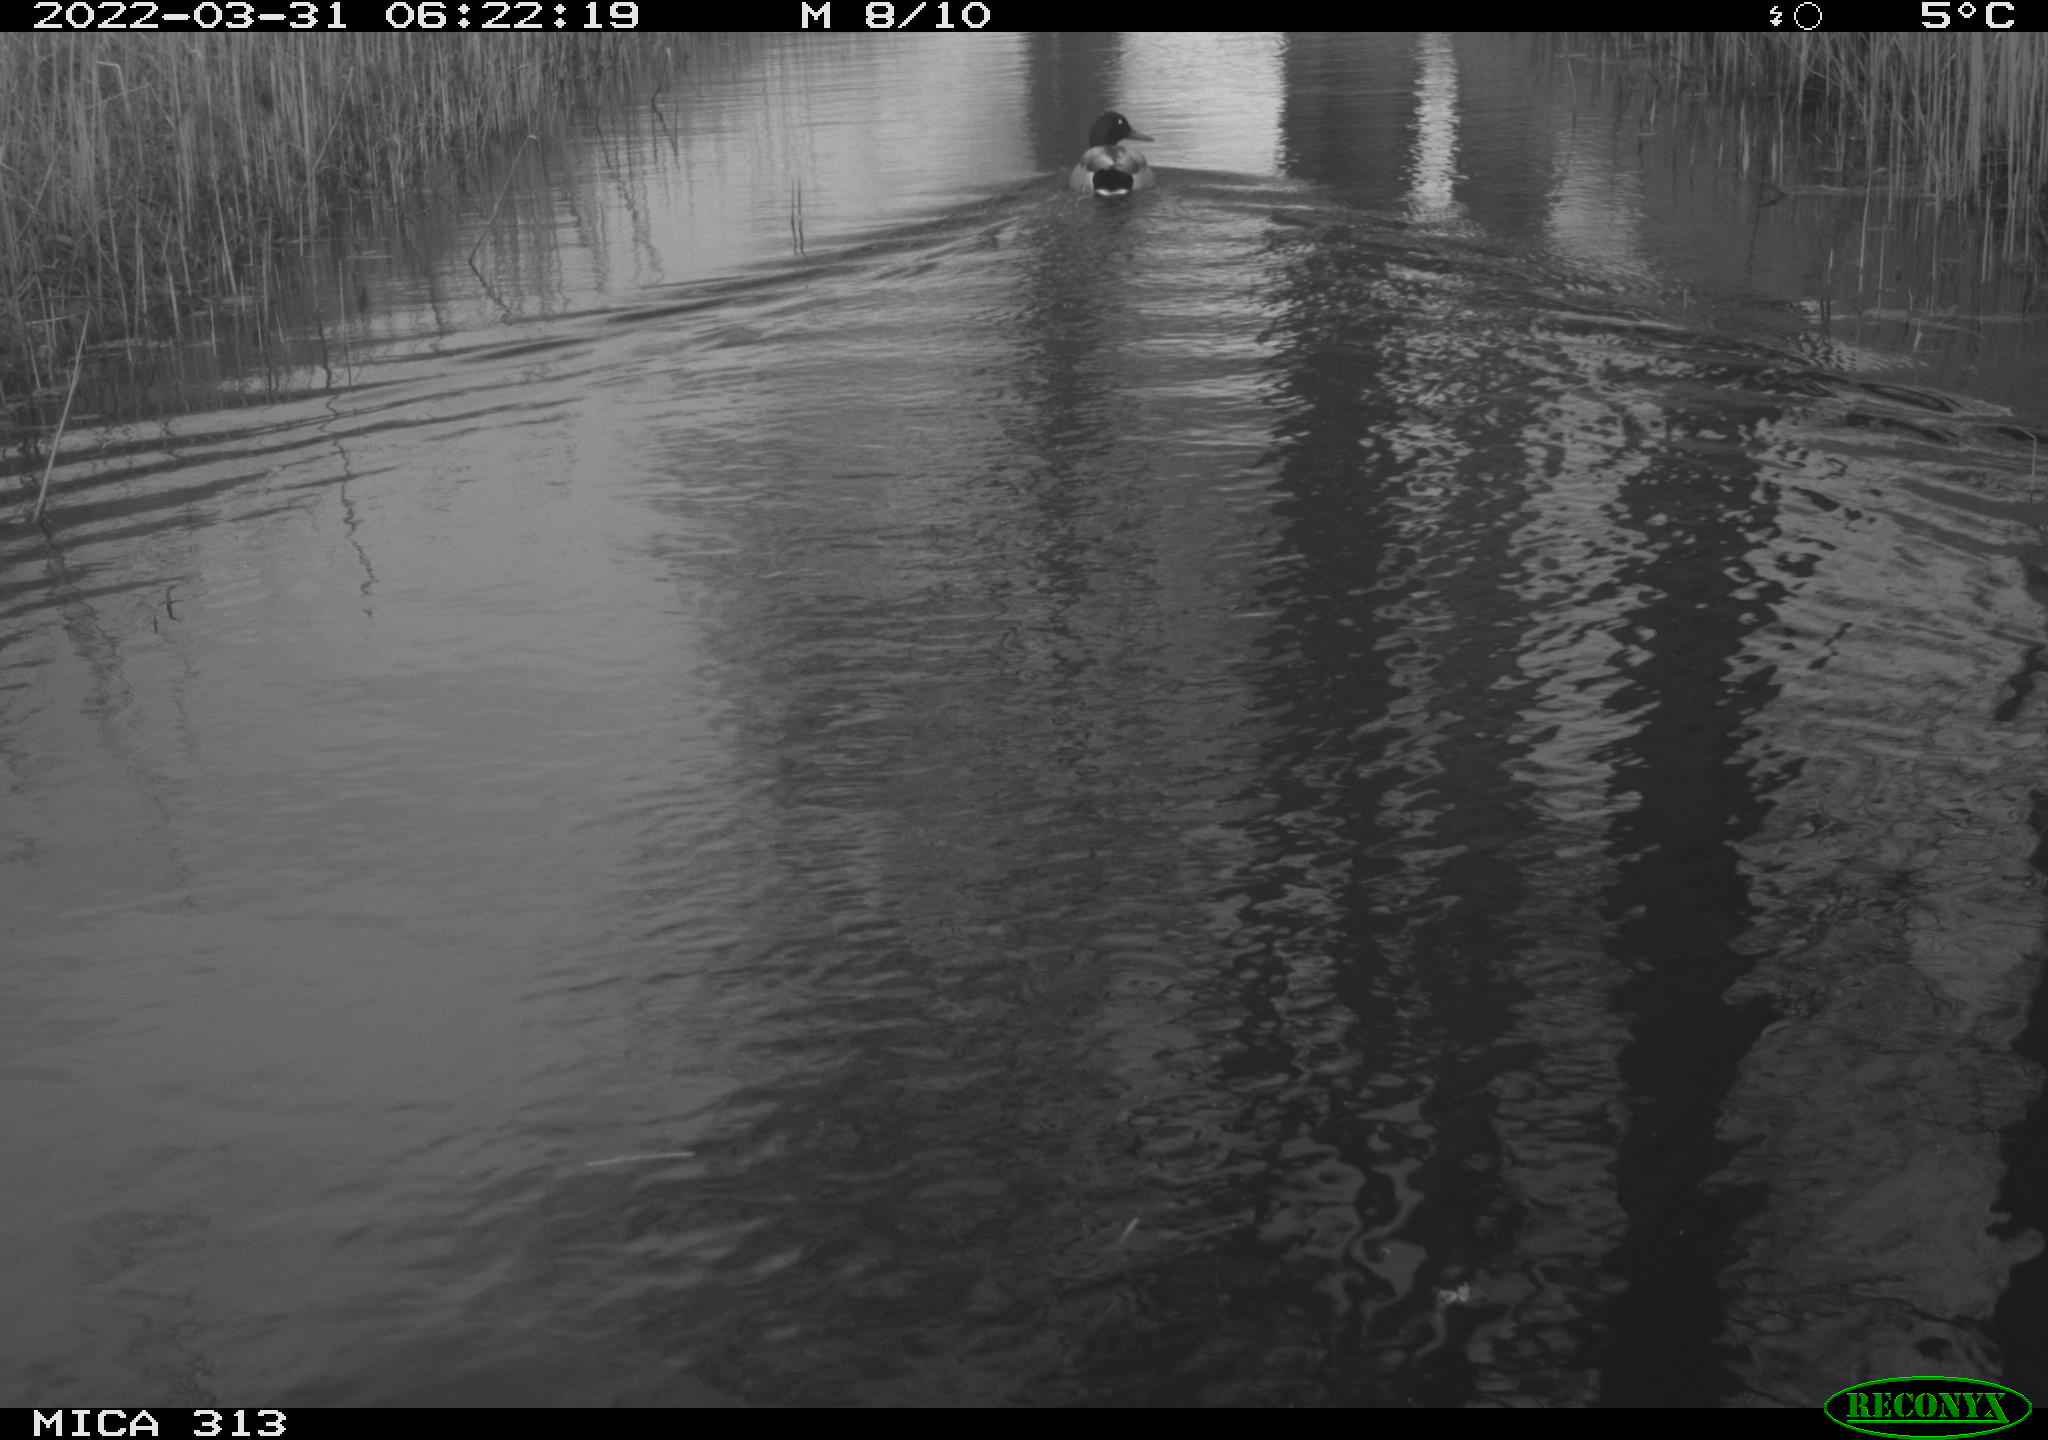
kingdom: Animalia
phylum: Chordata
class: Aves
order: Anseriformes
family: Anatidae
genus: Anas
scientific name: Anas platyrhynchos
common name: Mallard
